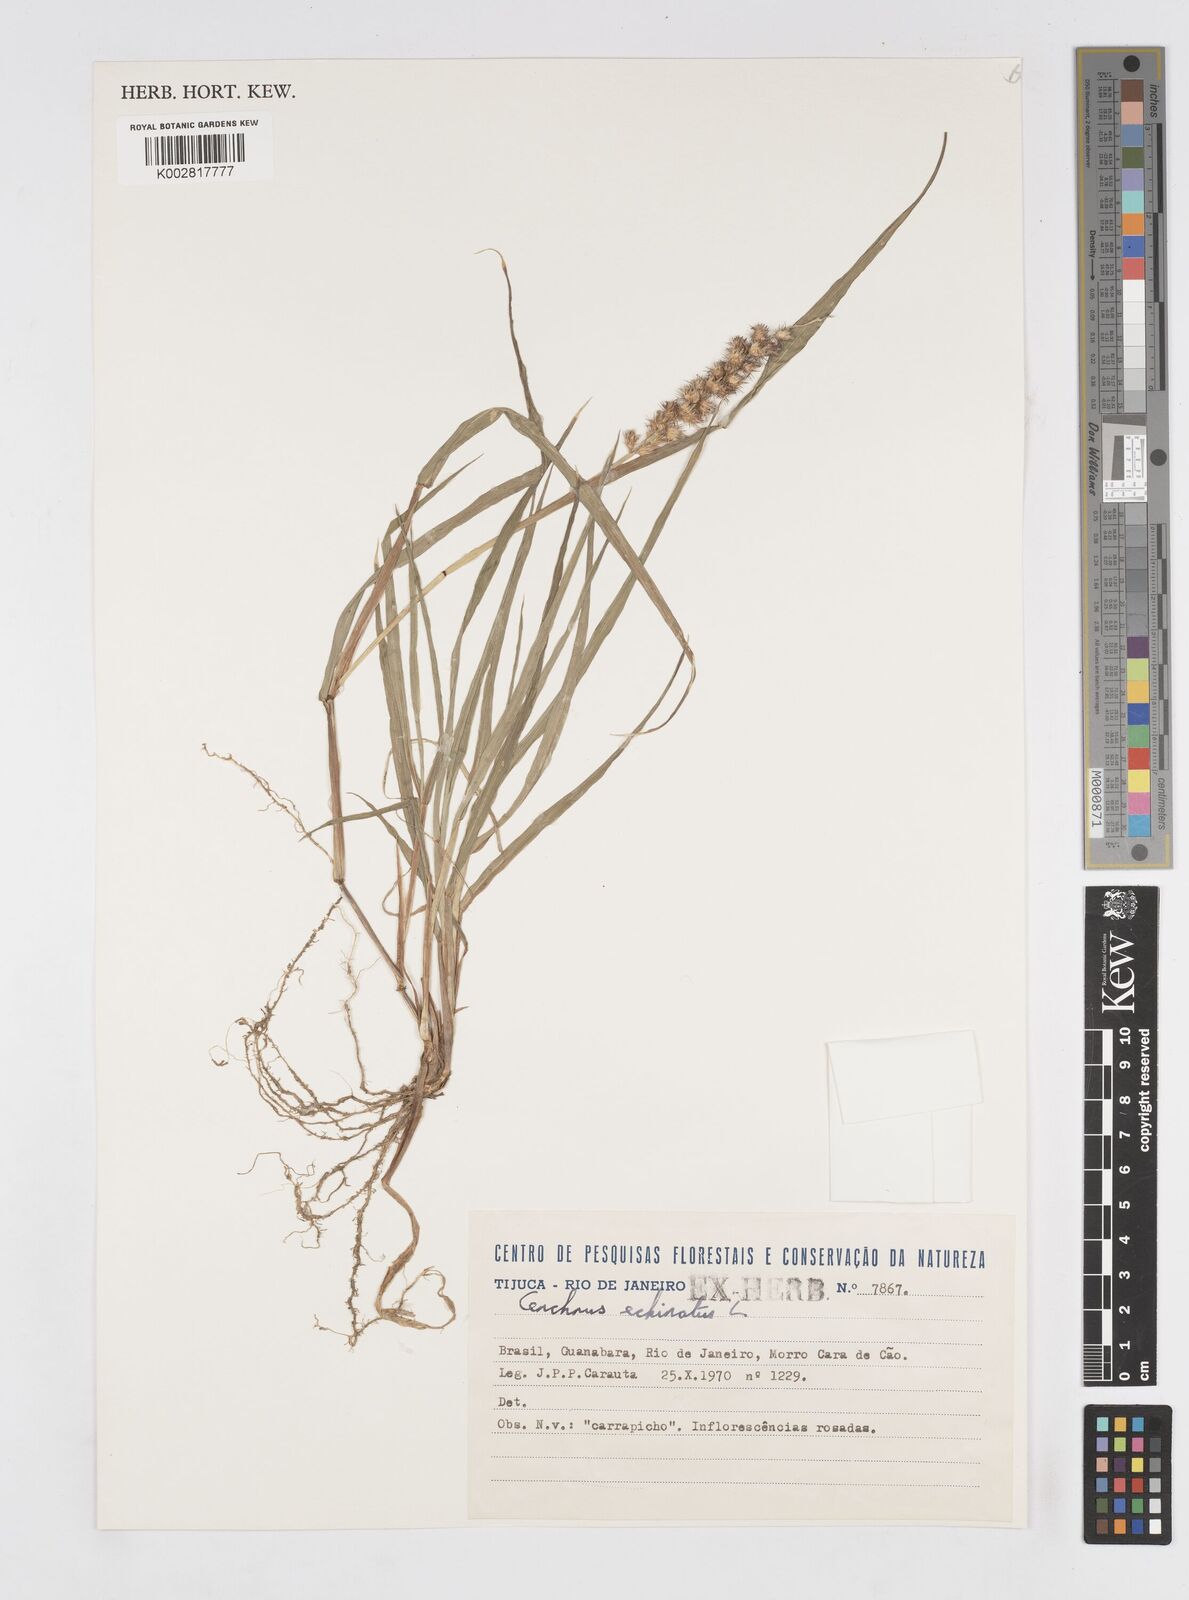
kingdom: Plantae
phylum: Tracheophyta
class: Liliopsida
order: Poales
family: Poaceae
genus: Cenchrus
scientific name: Cenchrus
